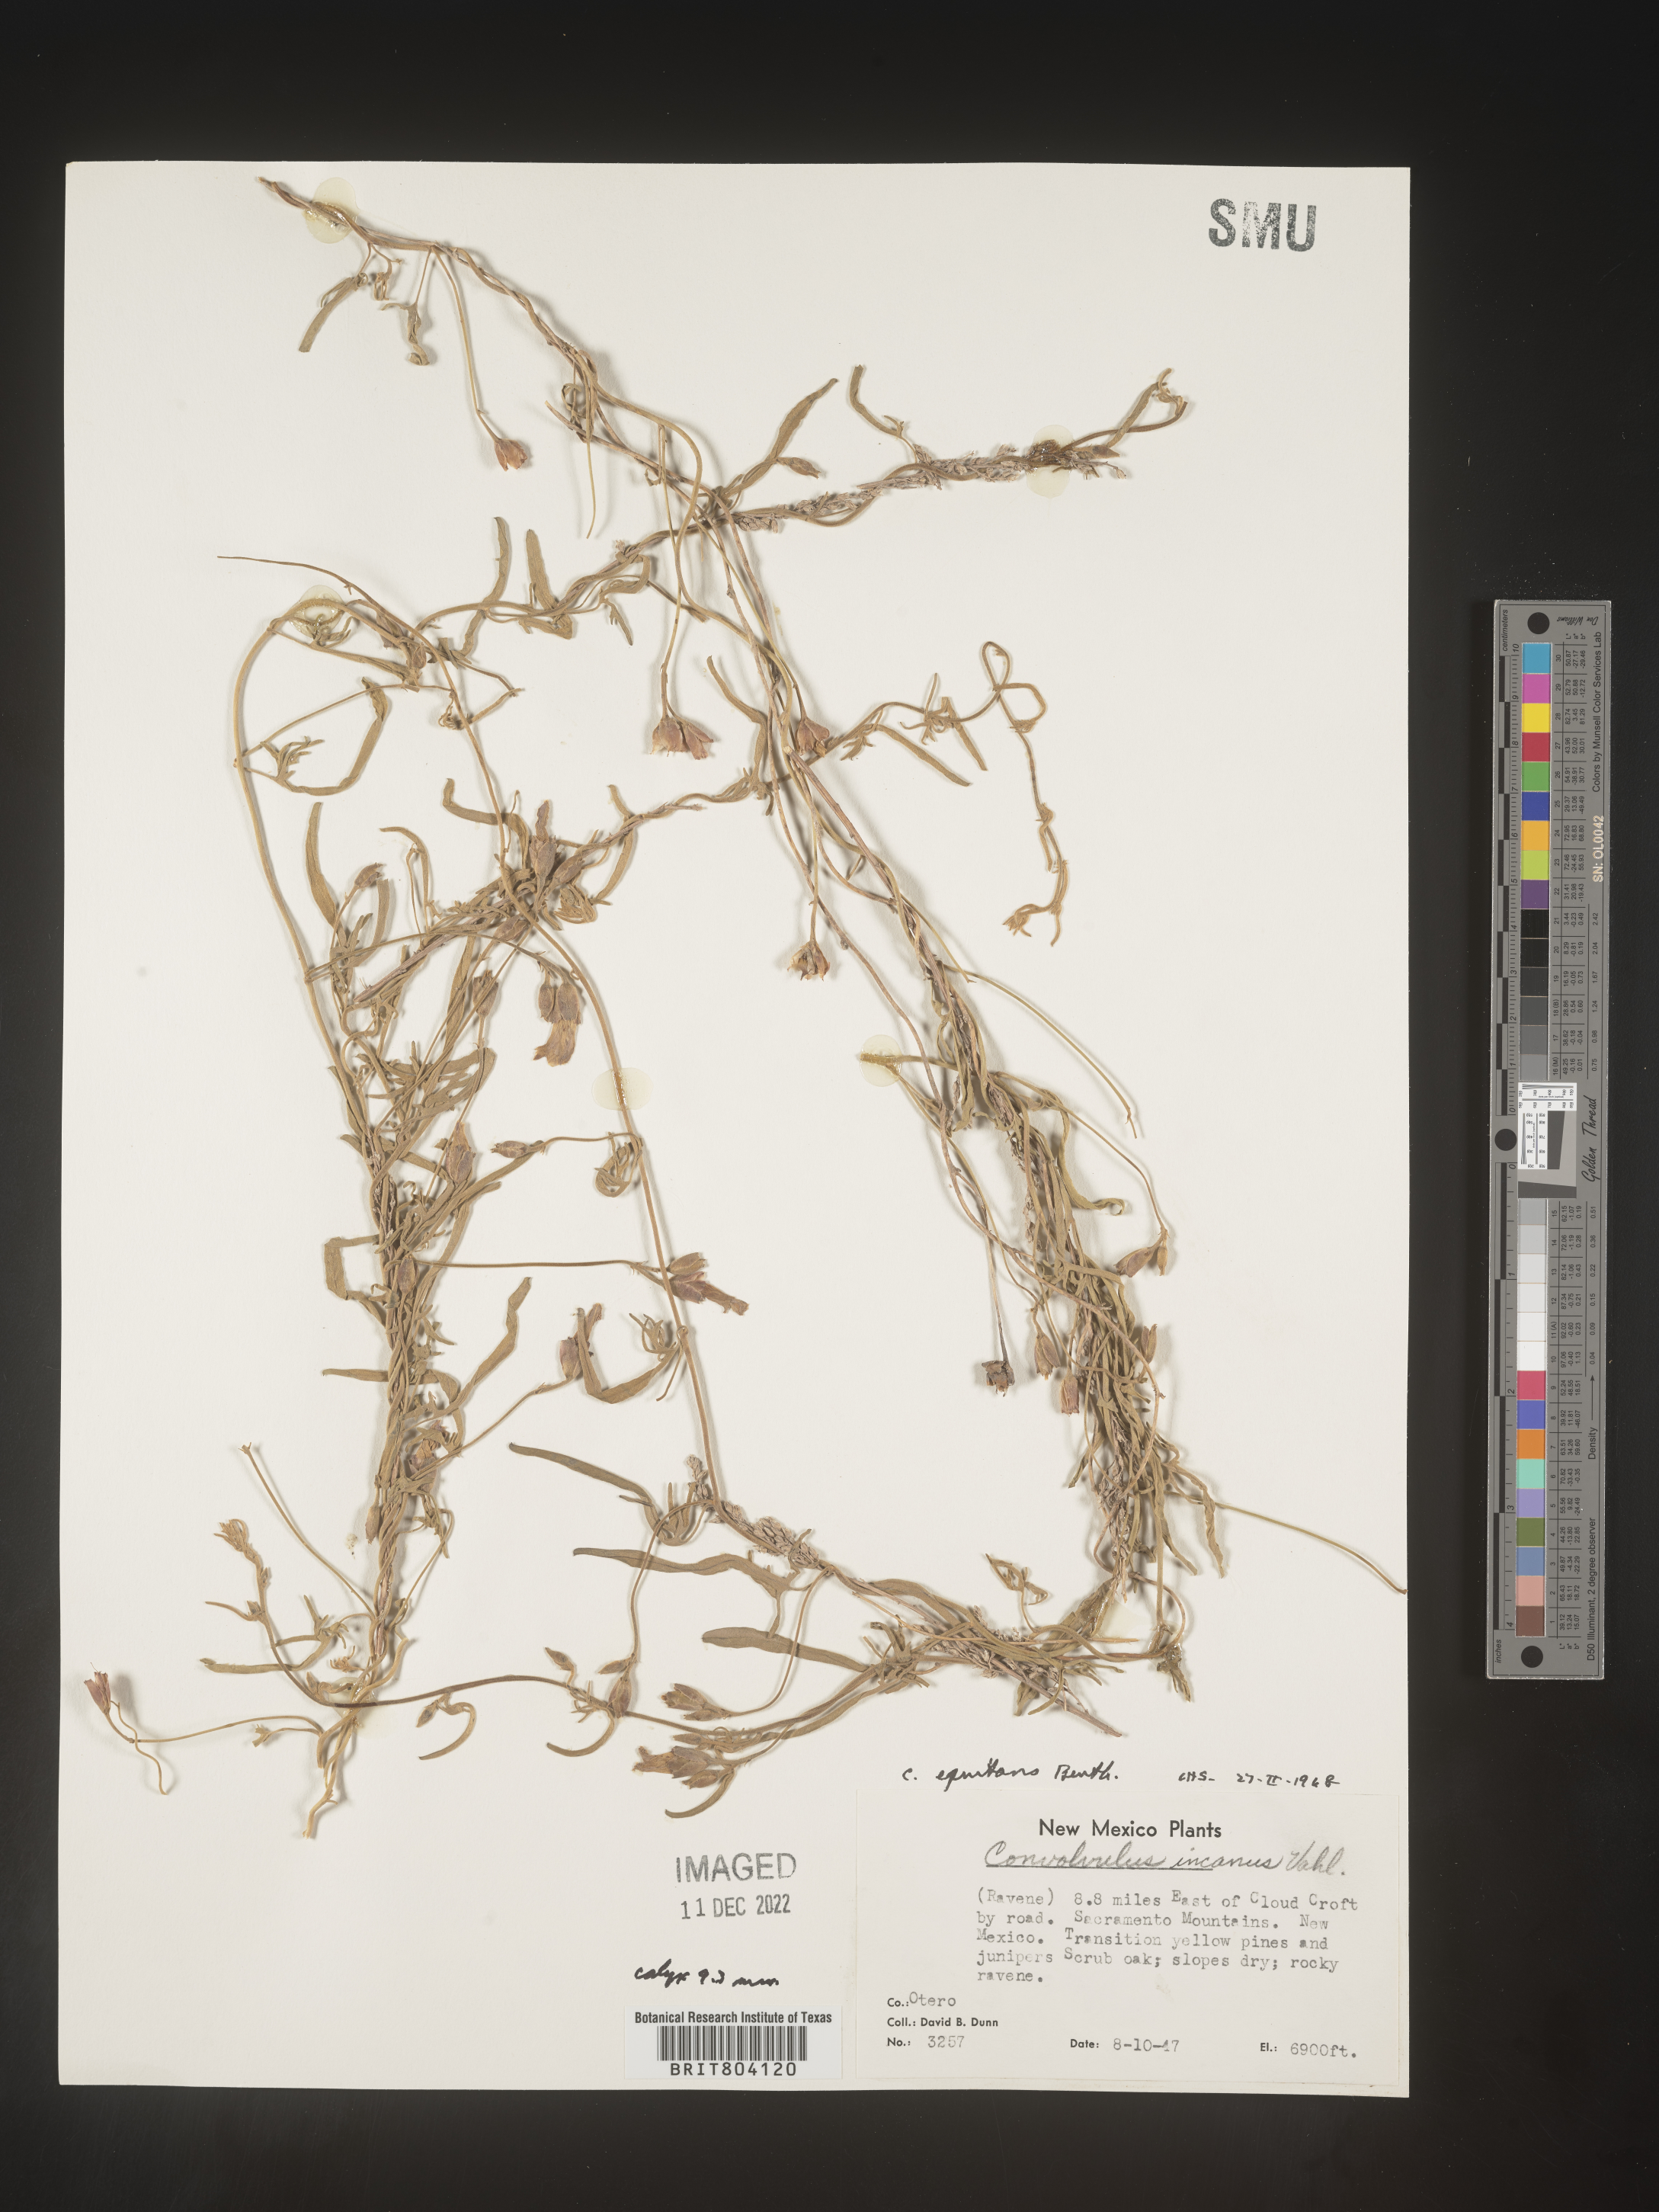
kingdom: Plantae
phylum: Tracheophyta
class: Magnoliopsida
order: Solanales
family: Convolvulaceae
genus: Convolvulus
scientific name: Convolvulus equitans
